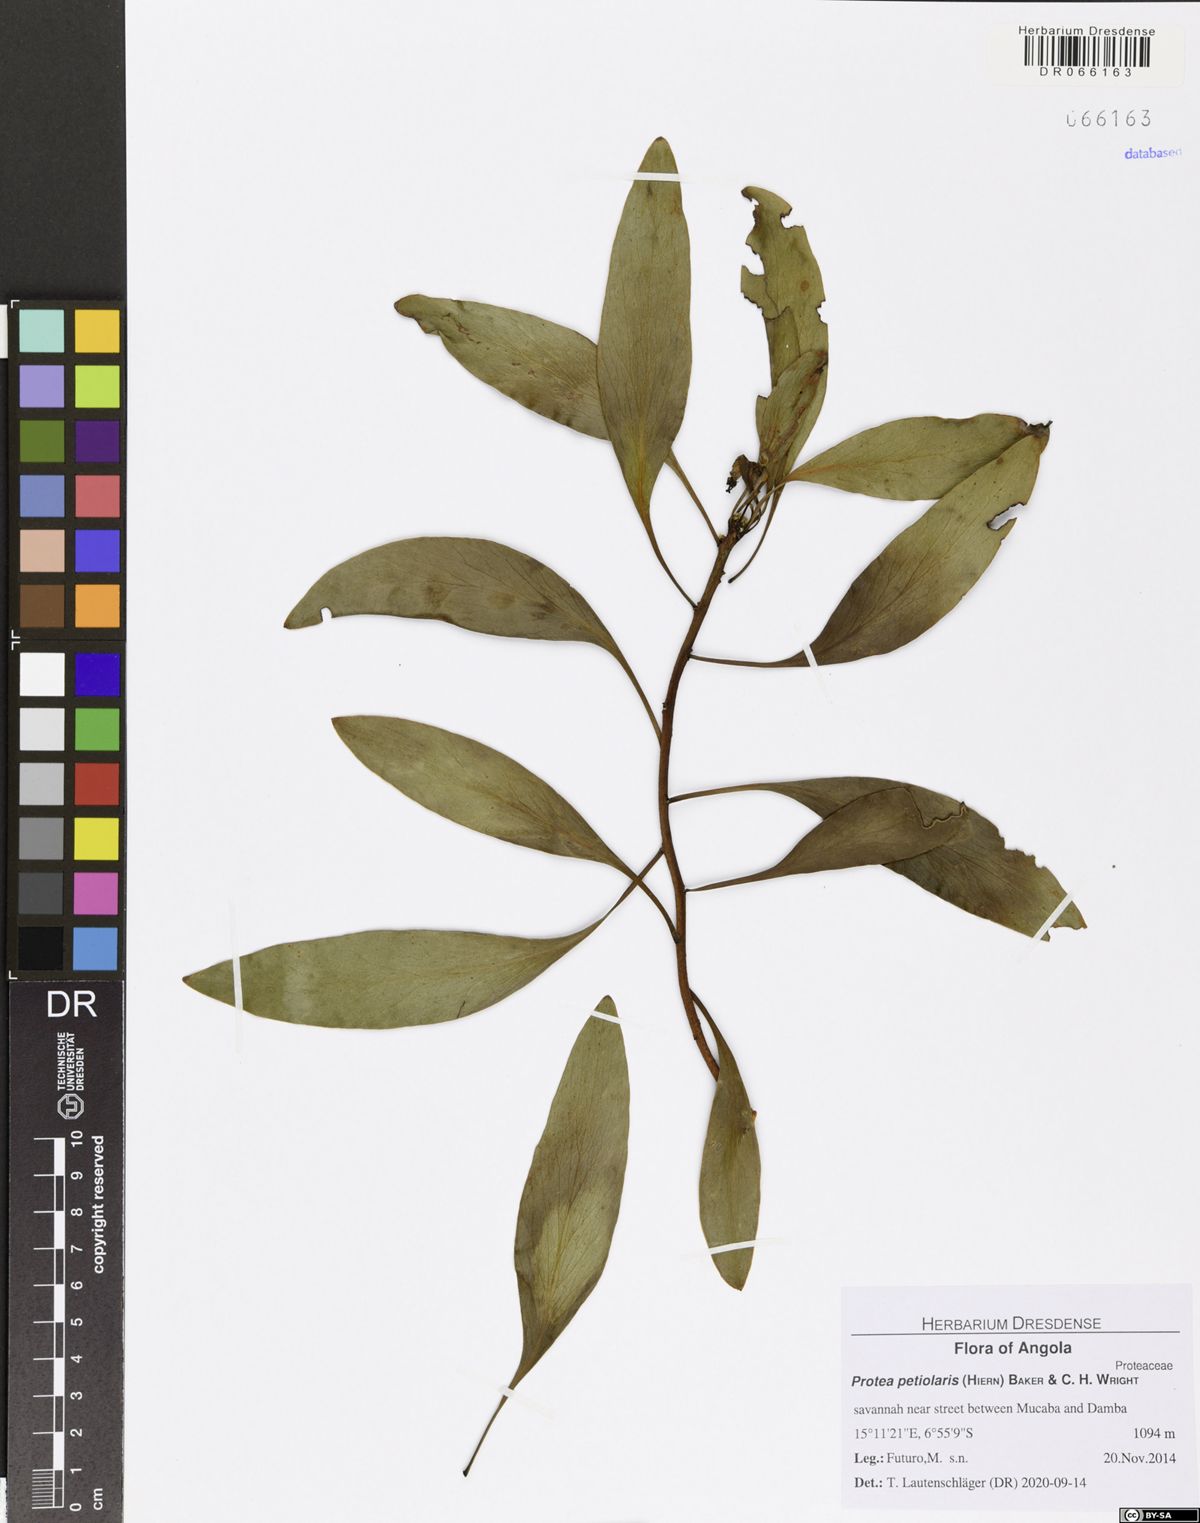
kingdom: Plantae
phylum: Tracheophyta
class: Magnoliopsida
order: Proteales
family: Proteaceae
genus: Protea
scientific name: Protea petiolaris
